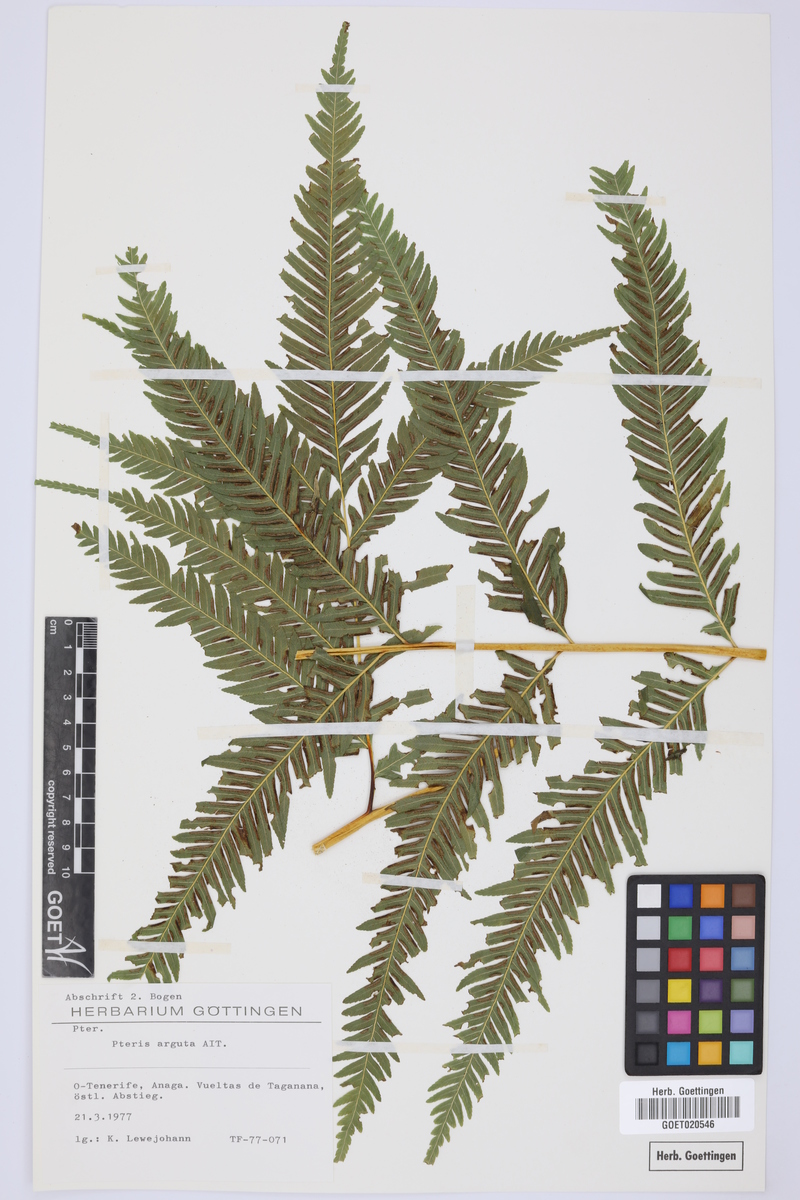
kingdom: Plantae
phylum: Tracheophyta
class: Polypodiopsida
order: Polypodiales
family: Pteridaceae
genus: Pteris
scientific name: Pteris dentata
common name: Toothed brake
